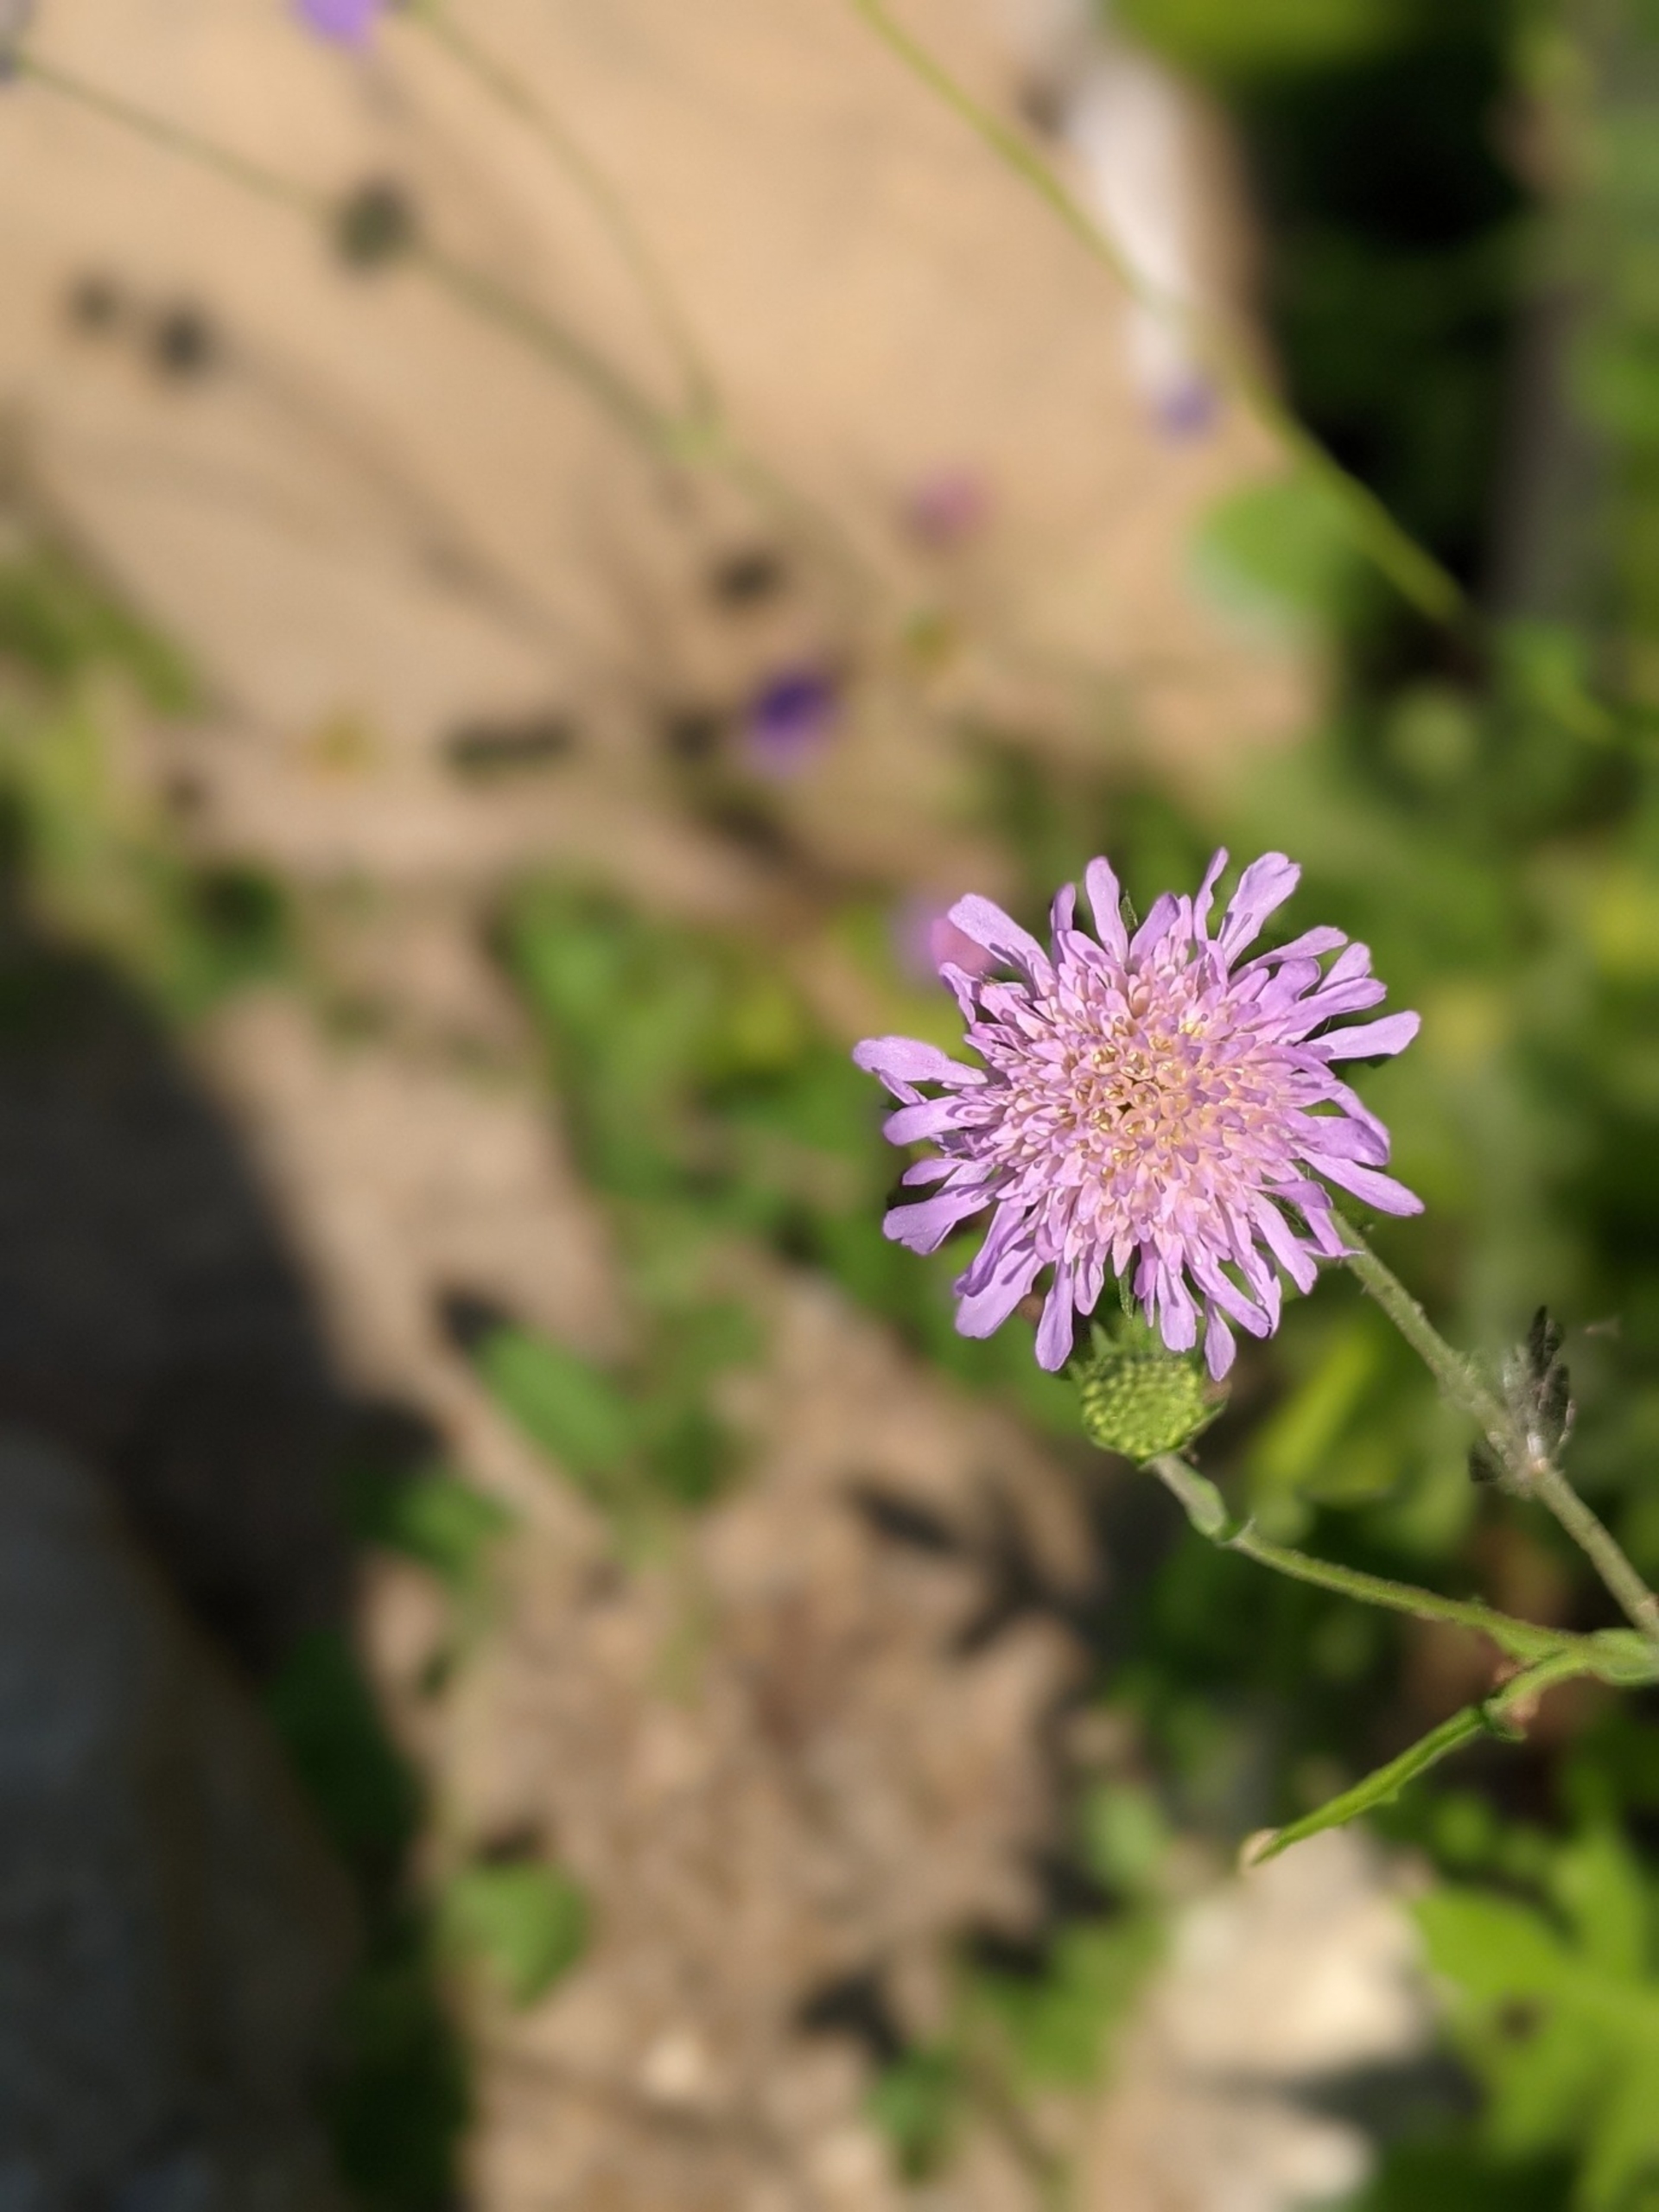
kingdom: Plantae
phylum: Tracheophyta
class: Magnoliopsida
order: Dipsacales
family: Caprifoliaceae
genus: Knautia
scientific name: Knautia arvensis
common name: Blåhat
